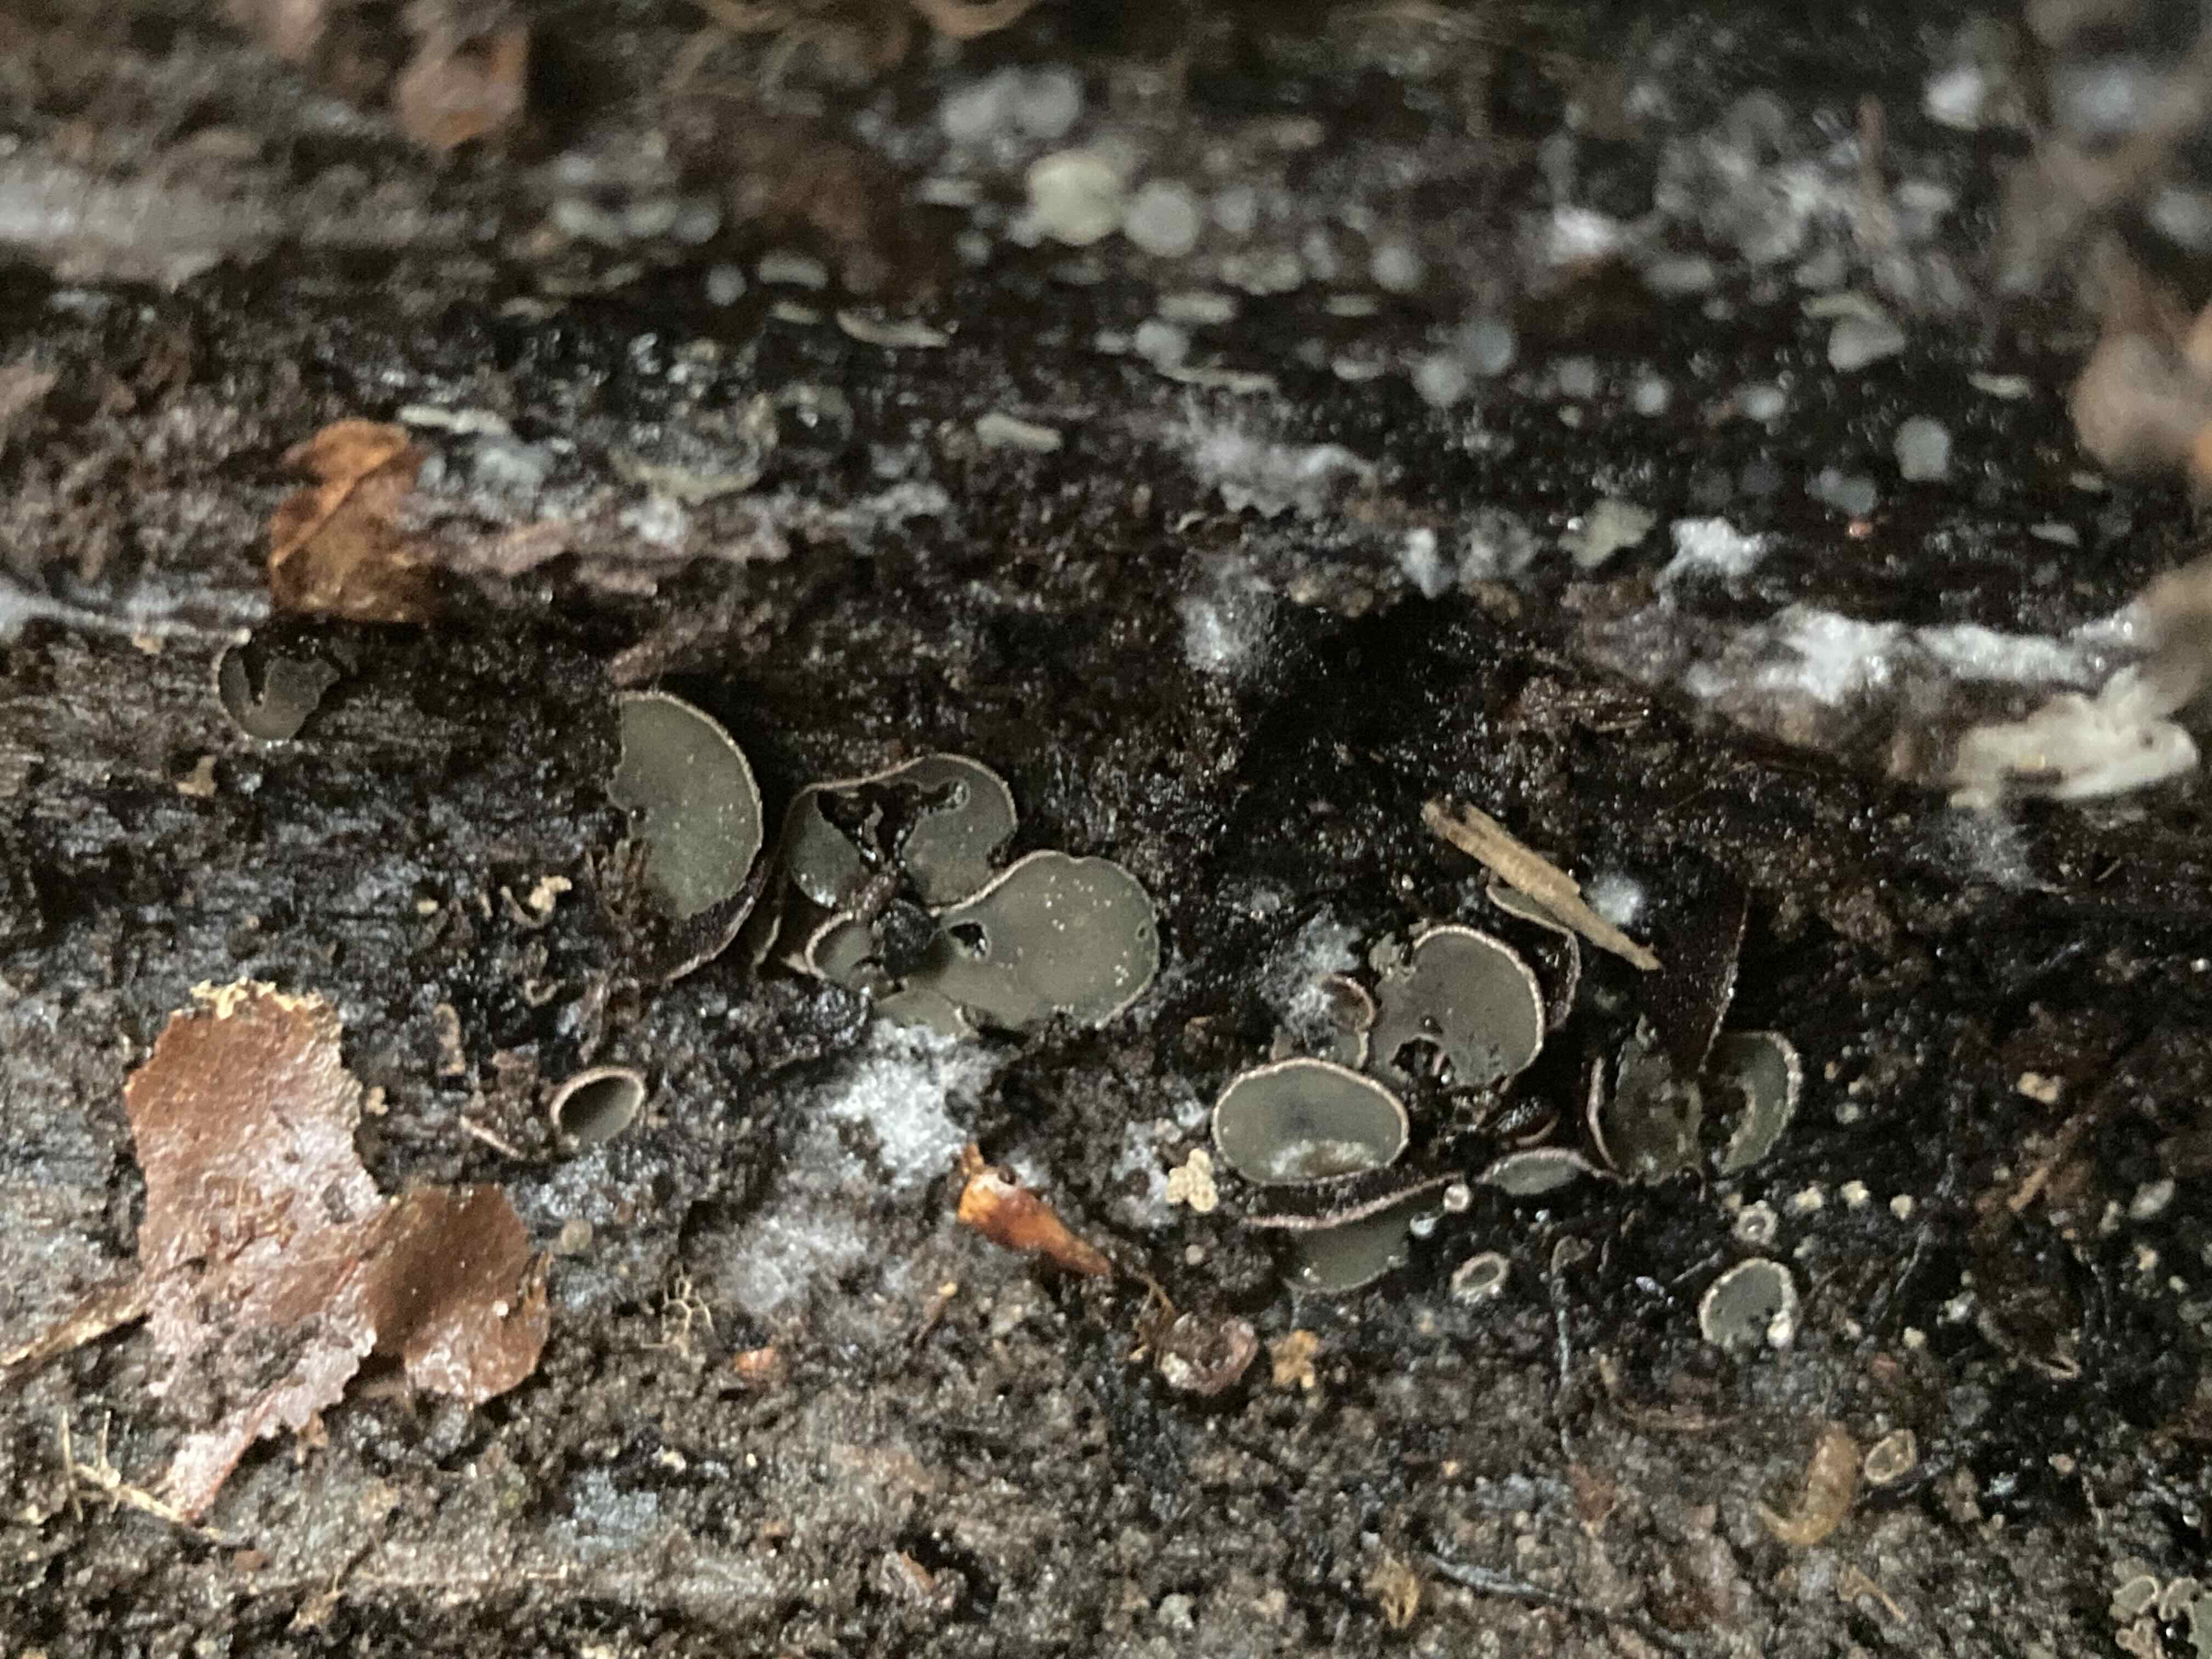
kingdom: Fungi
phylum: Ascomycota
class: Leotiomycetes
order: Helotiales
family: Cordieritidaceae
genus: Diplocarpa
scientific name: Diplocarpa bloxamii
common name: pragthårskive
